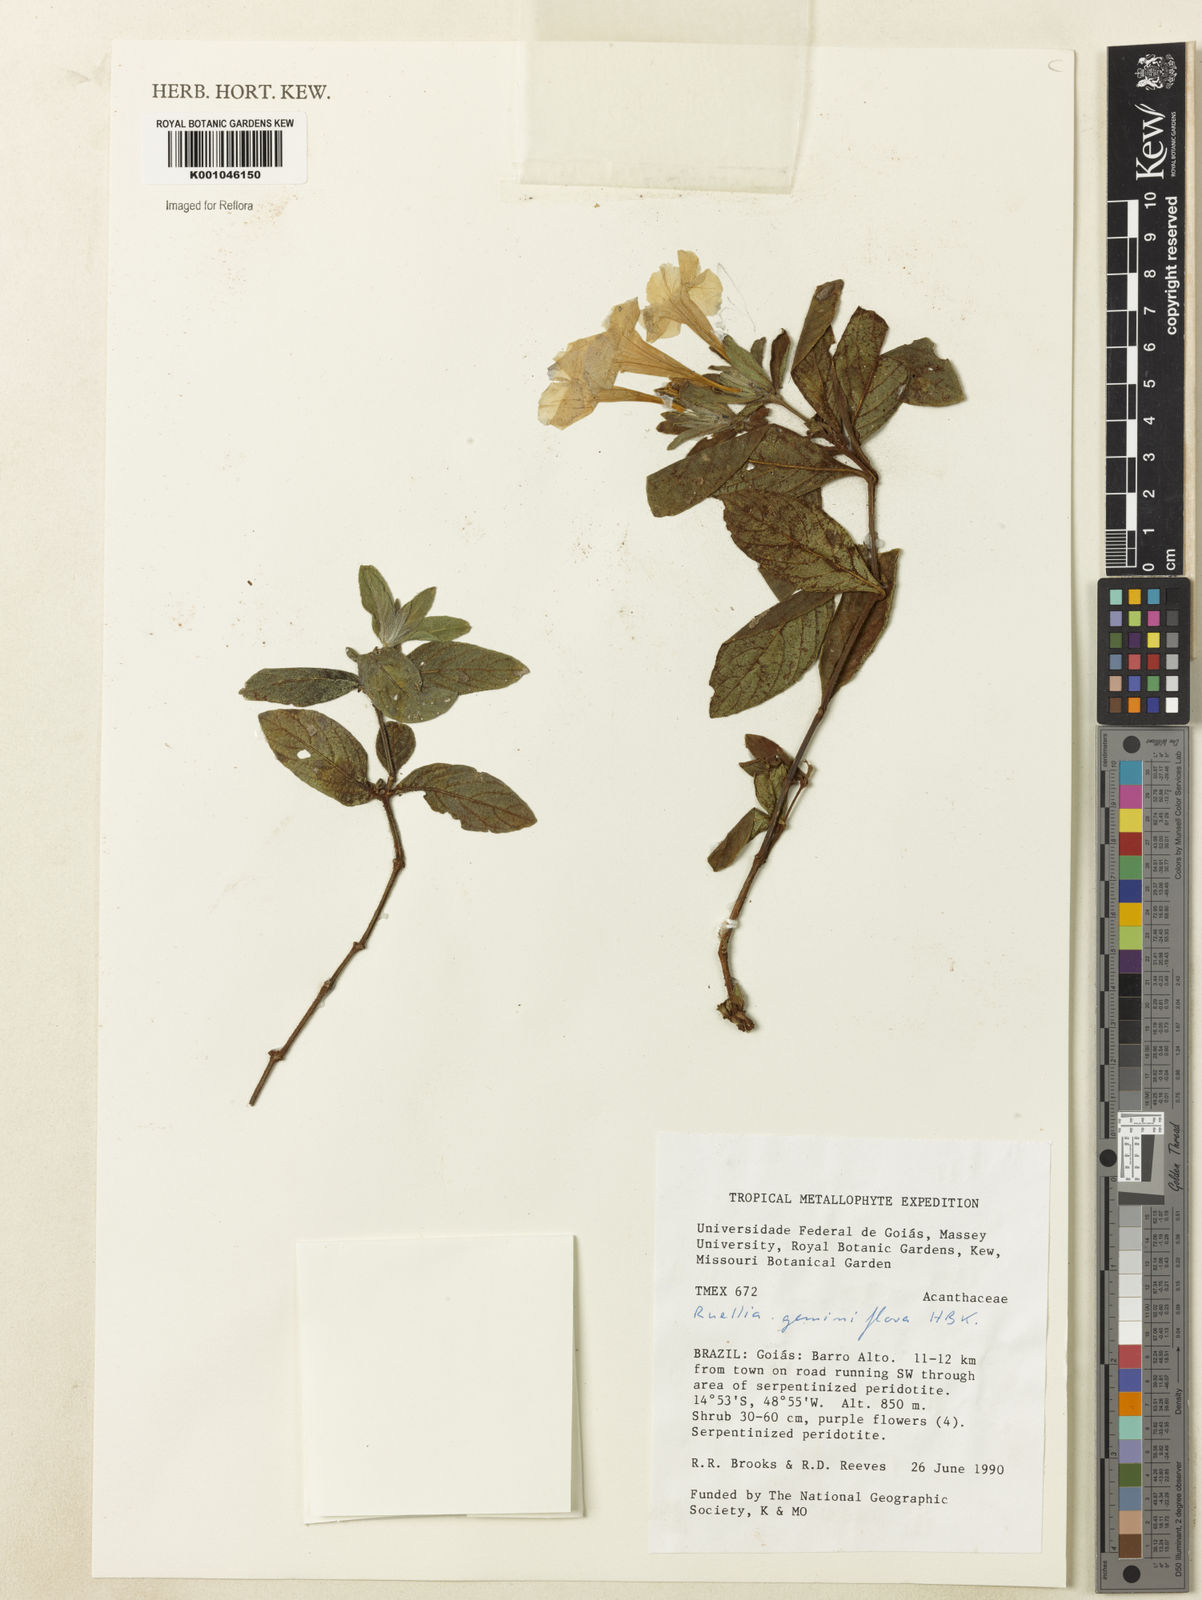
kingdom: Plantae
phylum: Tracheophyta
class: Magnoliopsida
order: Lamiales
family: Acanthaceae
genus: Ruellia
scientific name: Ruellia geminiflora
